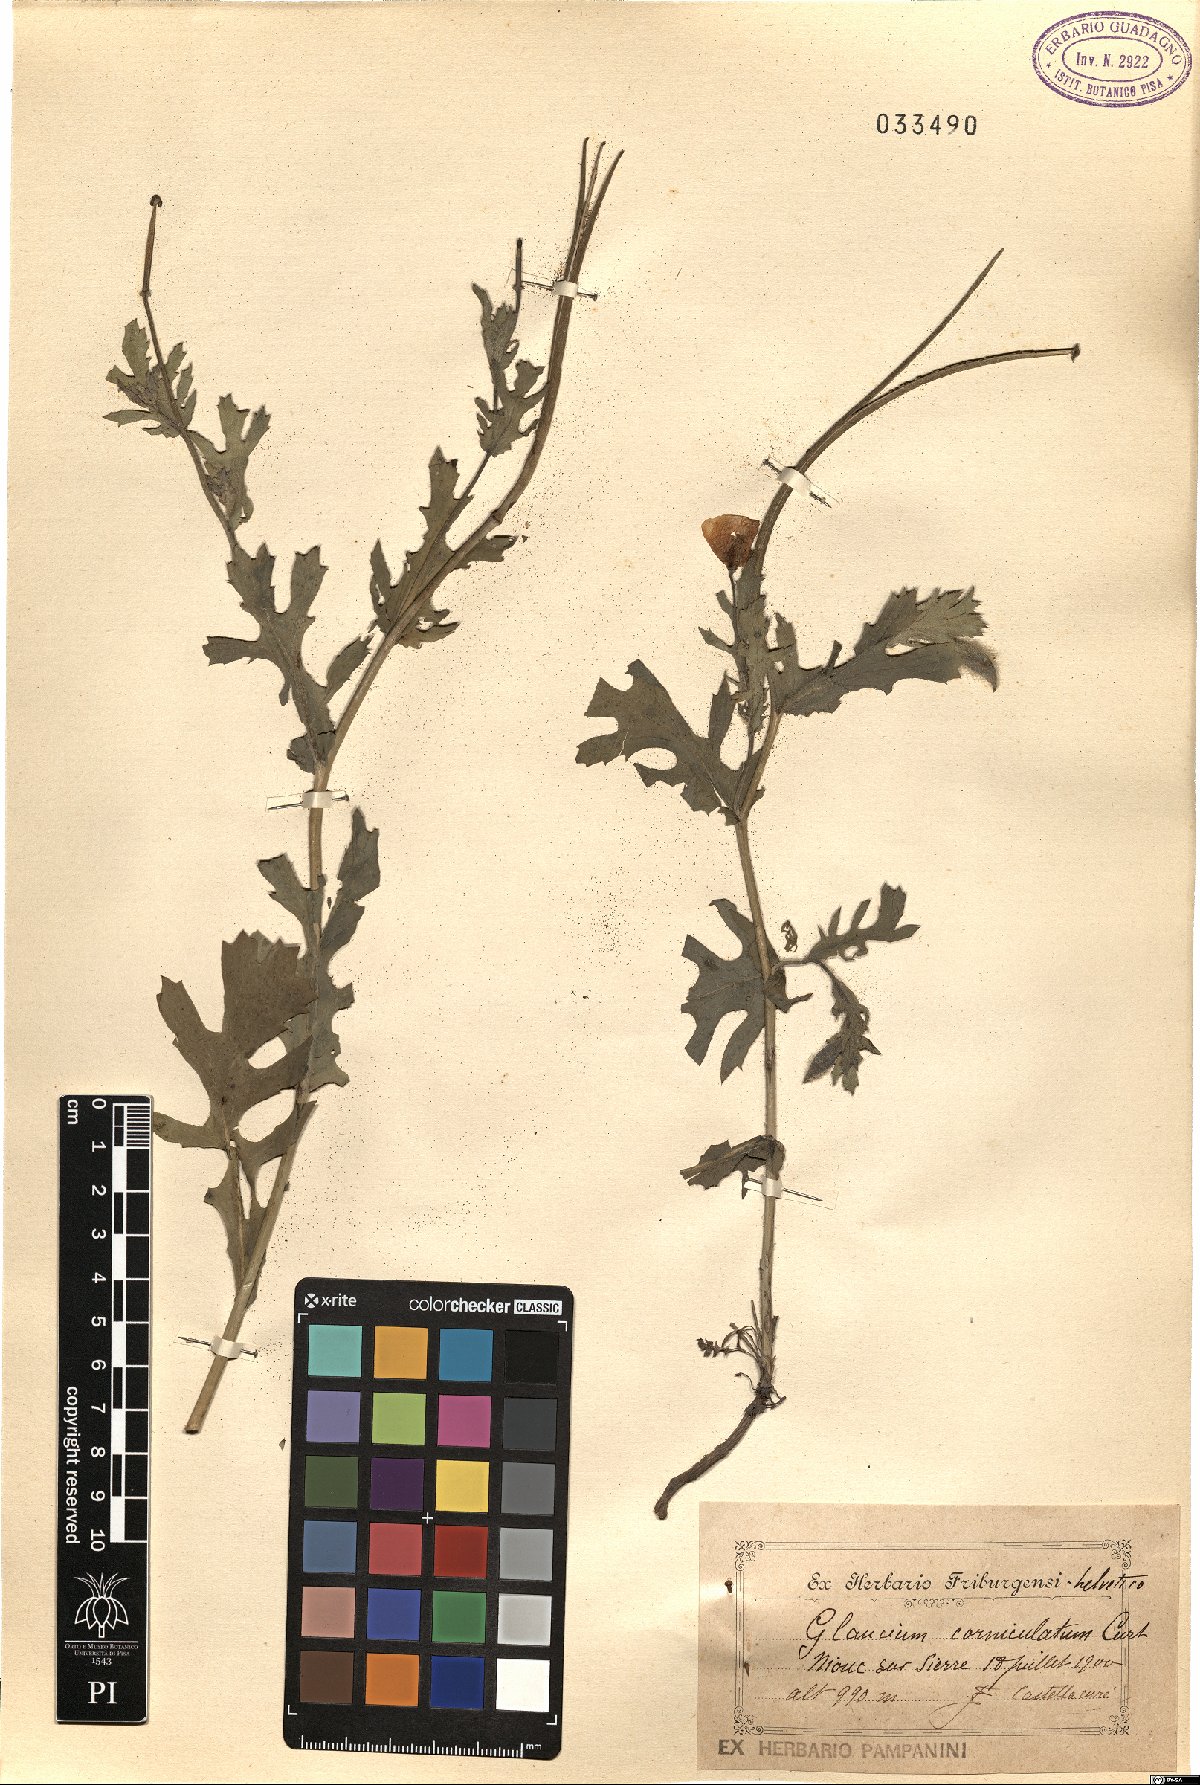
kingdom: Plantae
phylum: Tracheophyta
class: Magnoliopsida
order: Ranunculales
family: Papaveraceae
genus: Glaucium
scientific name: Glaucium corniculatum
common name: Red horned-poppy
